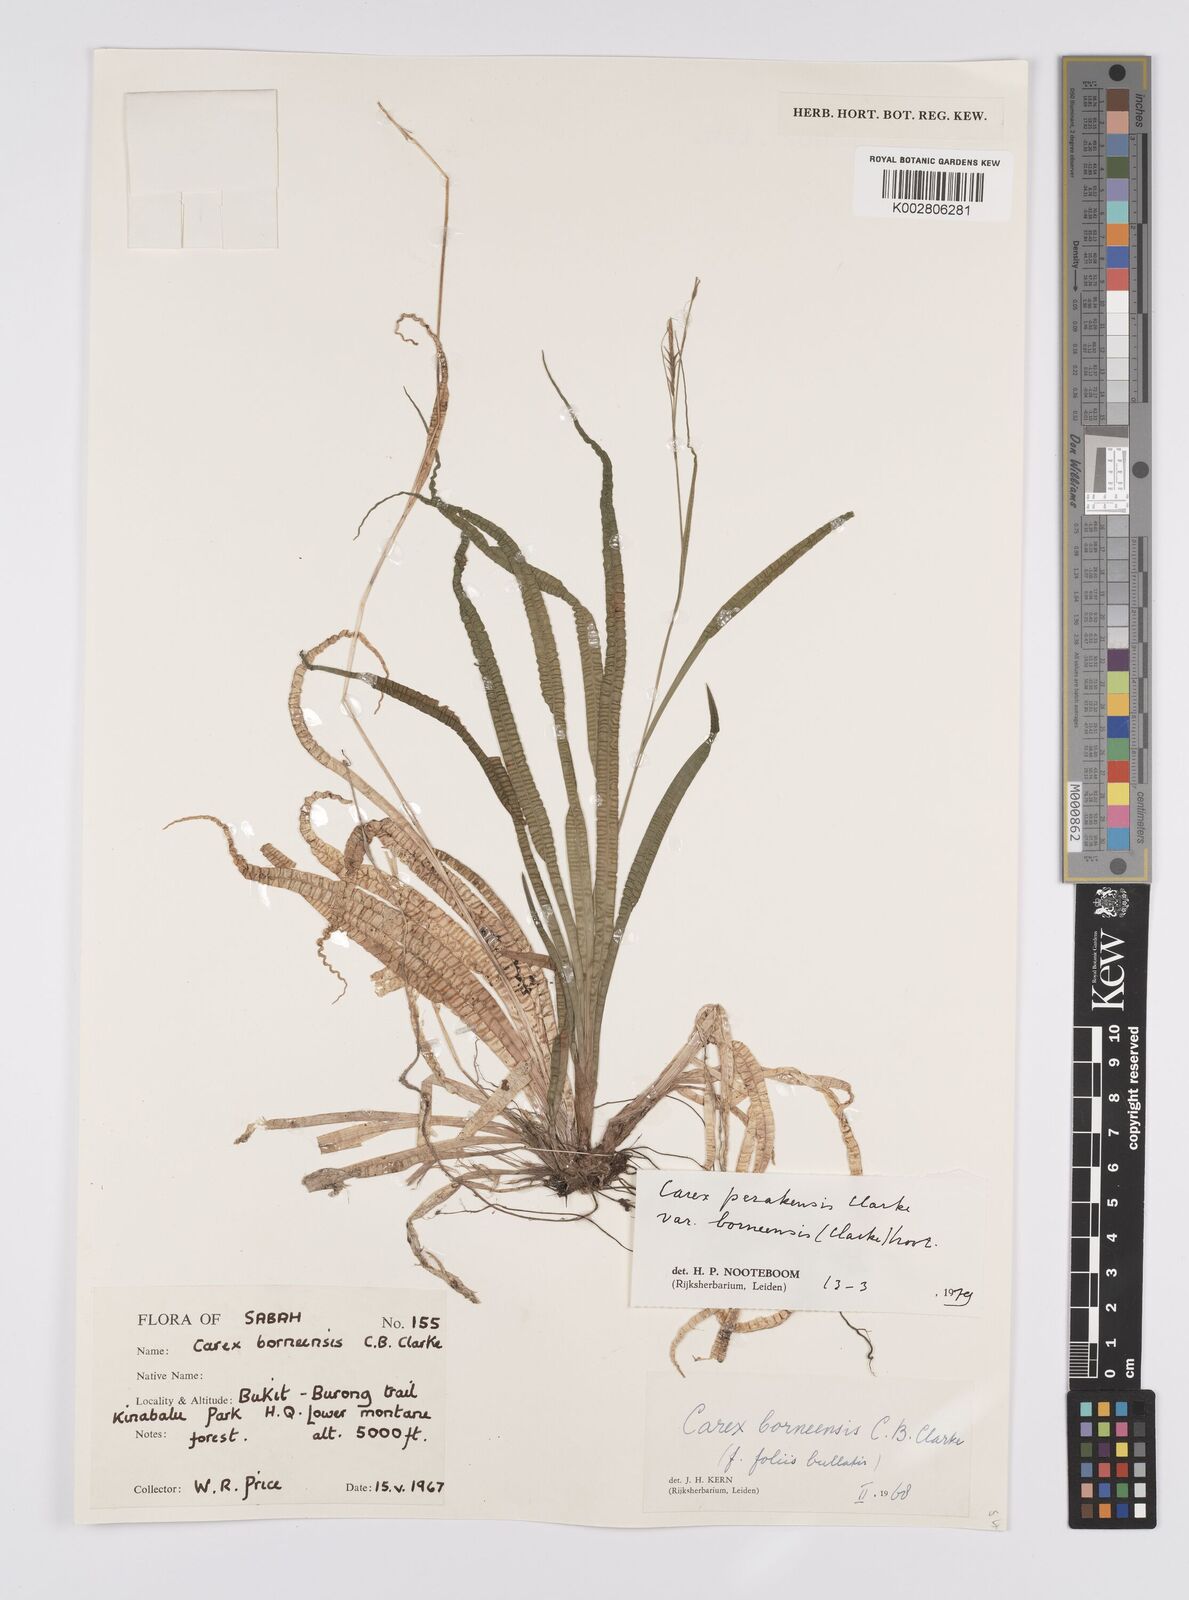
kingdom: Plantae
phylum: Tracheophyta
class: Liliopsida
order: Poales
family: Cyperaceae
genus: Carex
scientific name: Carex perakensis
